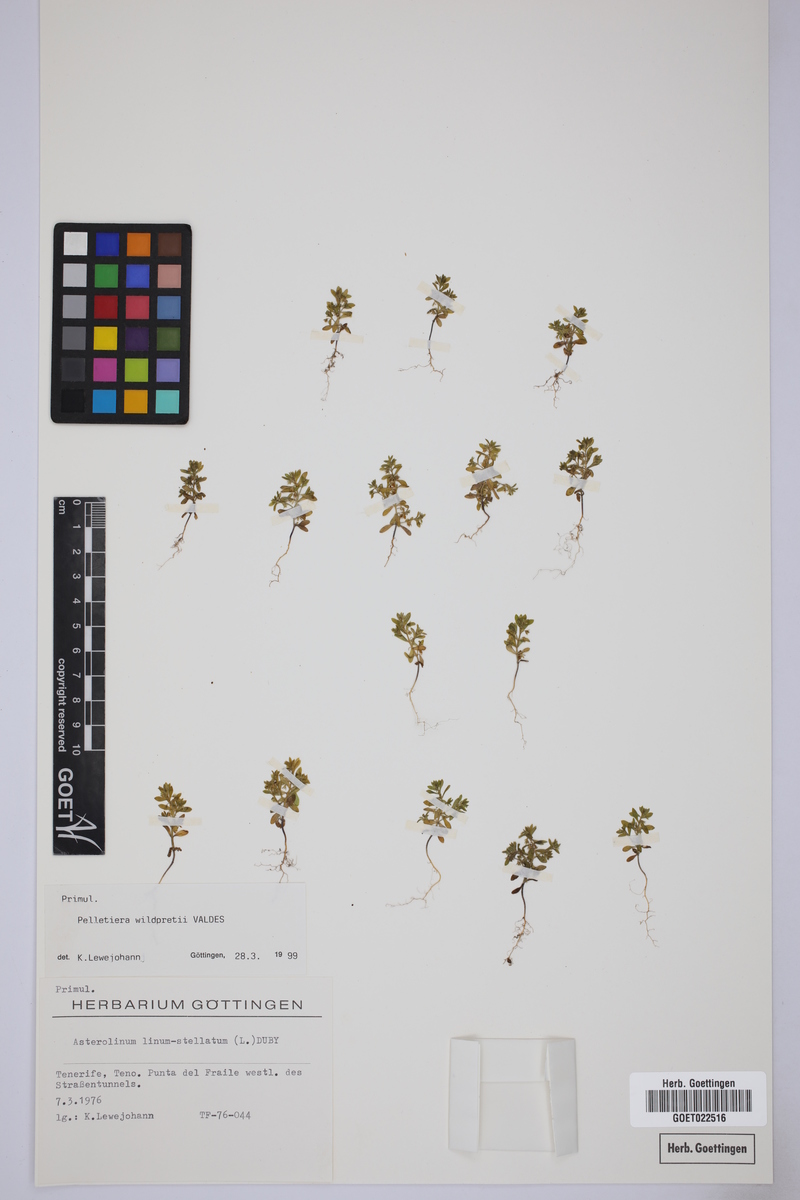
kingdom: Plantae
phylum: Tracheophyta
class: Magnoliopsida
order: Ericales
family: Primulaceae
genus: Lysimachia
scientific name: Lysimachia wildpretii
